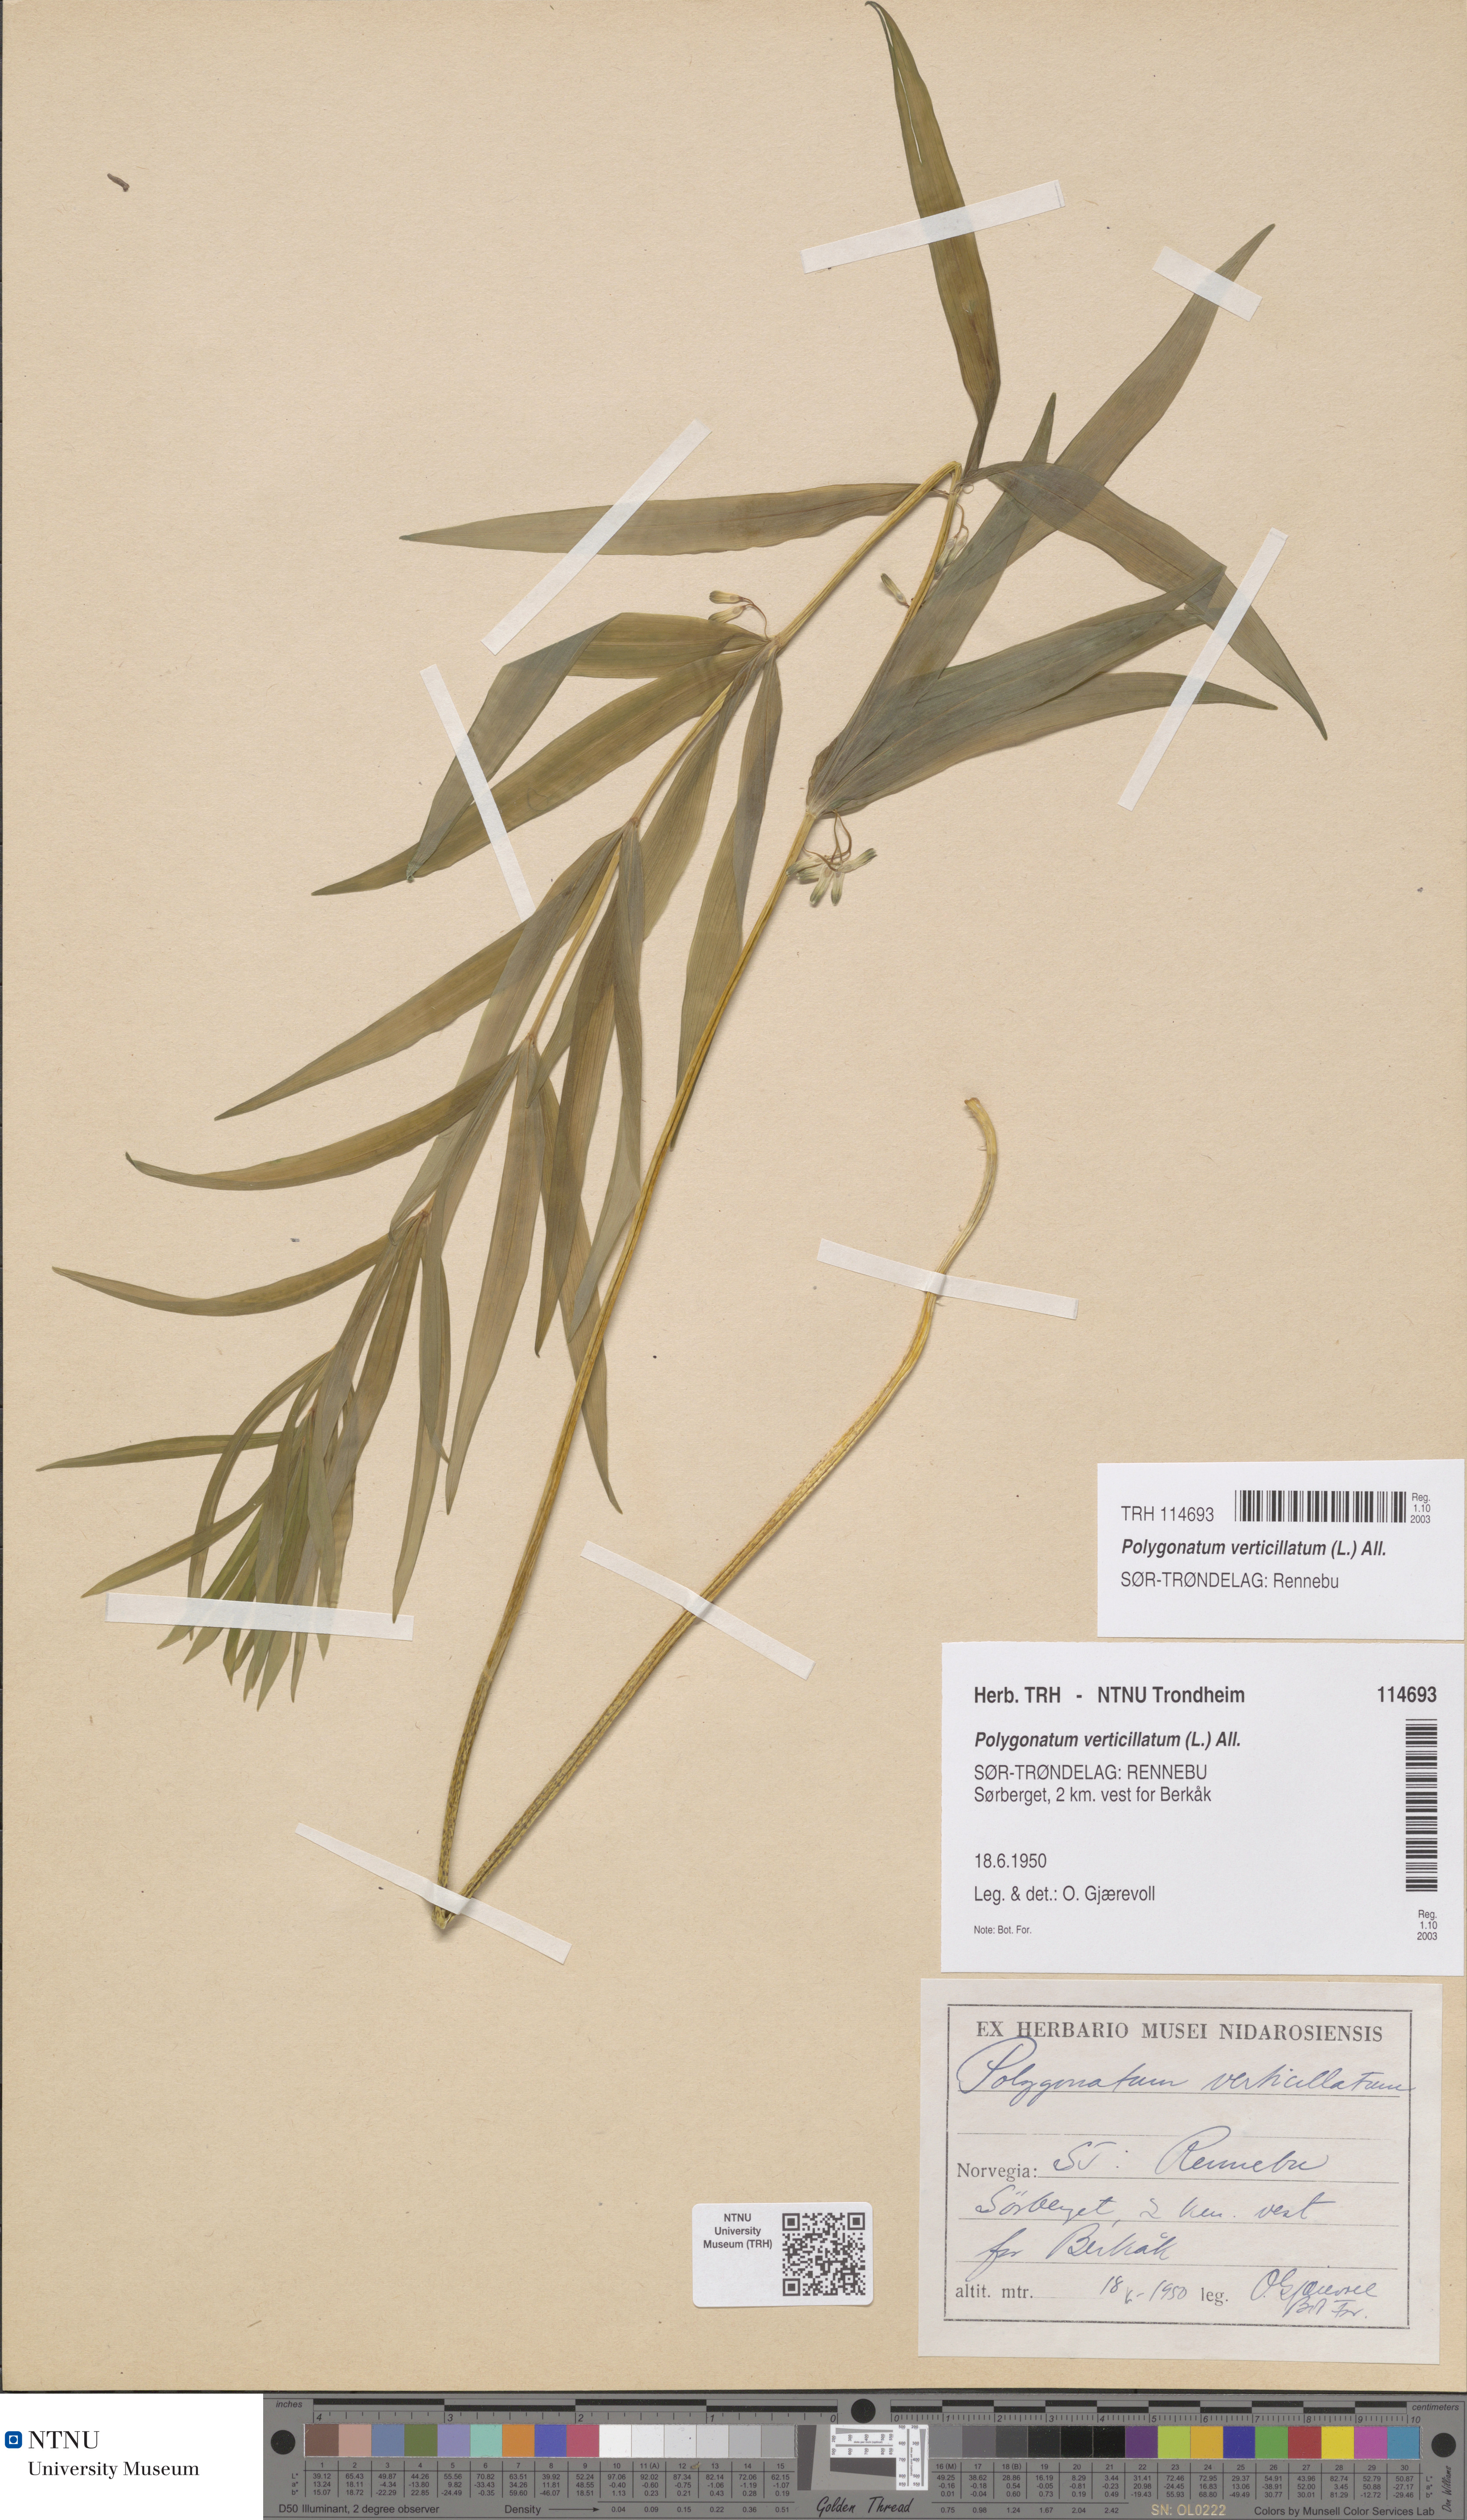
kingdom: Plantae
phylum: Tracheophyta
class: Liliopsida
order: Asparagales
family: Asparagaceae
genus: Polygonatum
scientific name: Polygonatum verticillatum
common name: Whorled solomon's-seal
